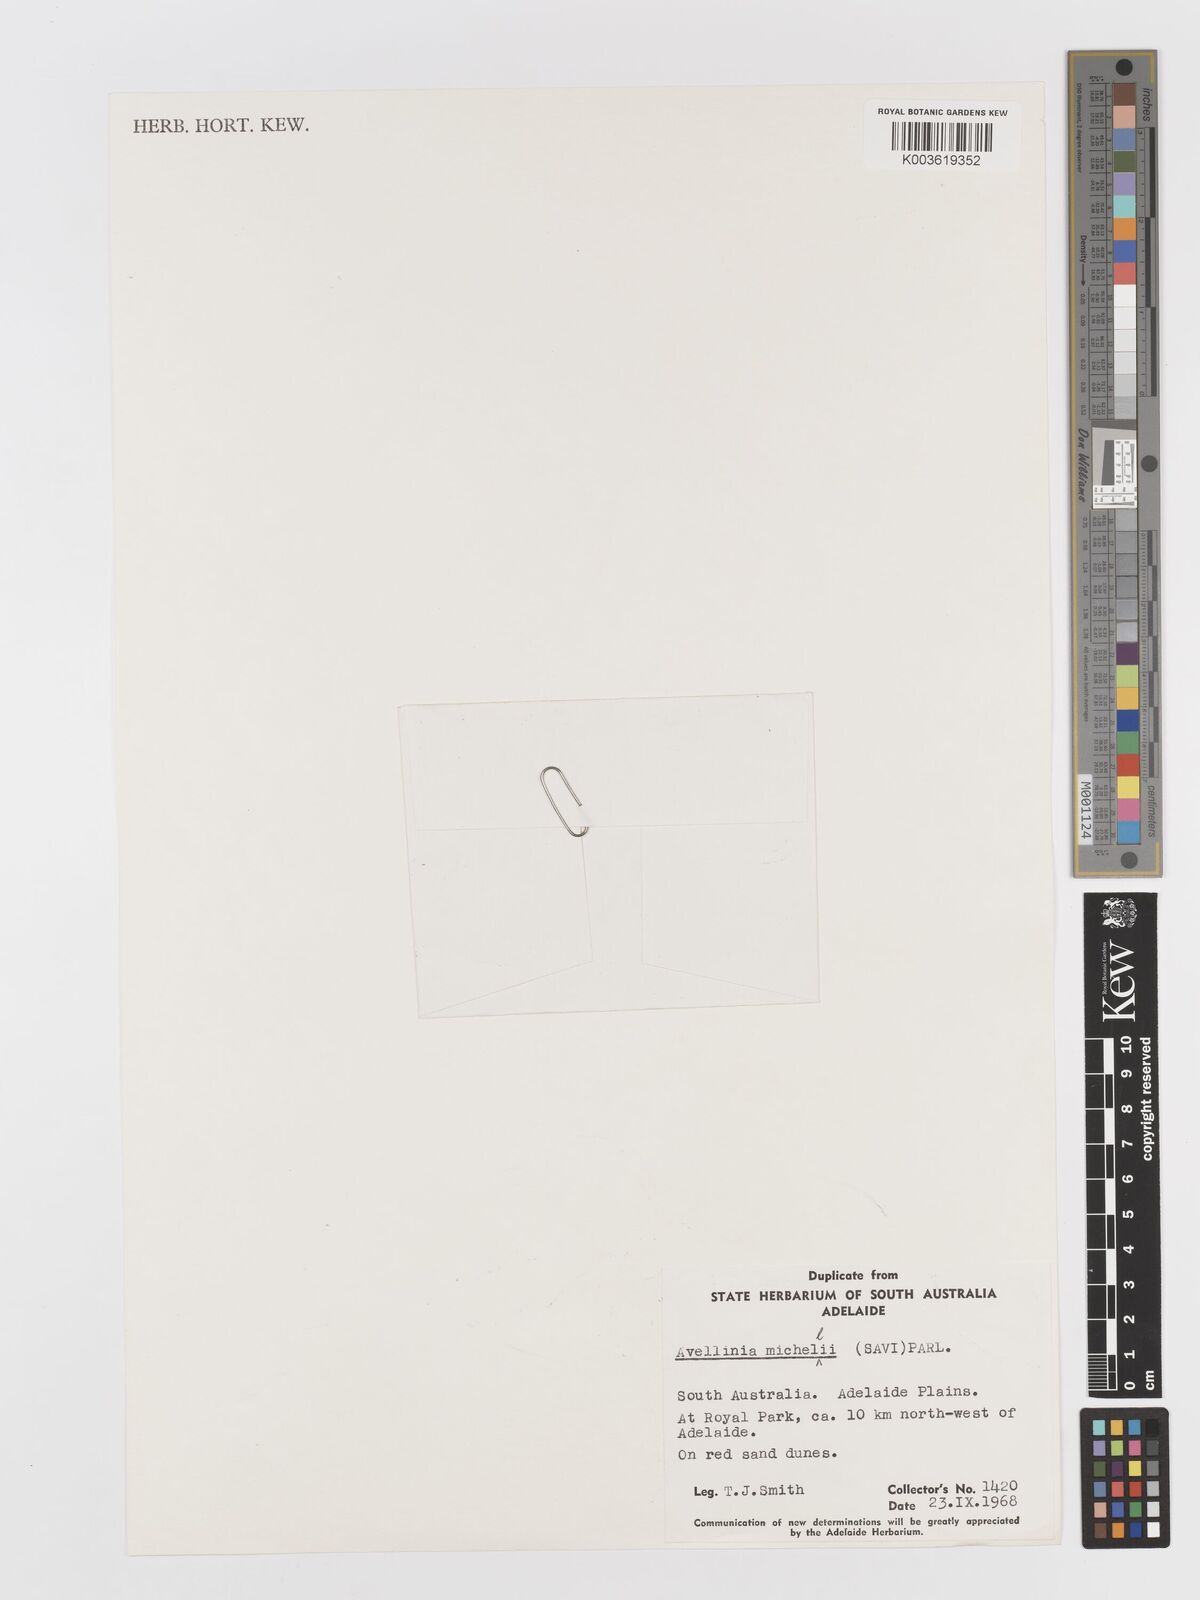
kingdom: Plantae
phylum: Tracheophyta
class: Liliopsida
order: Poales
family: Poaceae
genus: Rostraria
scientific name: Rostraria
